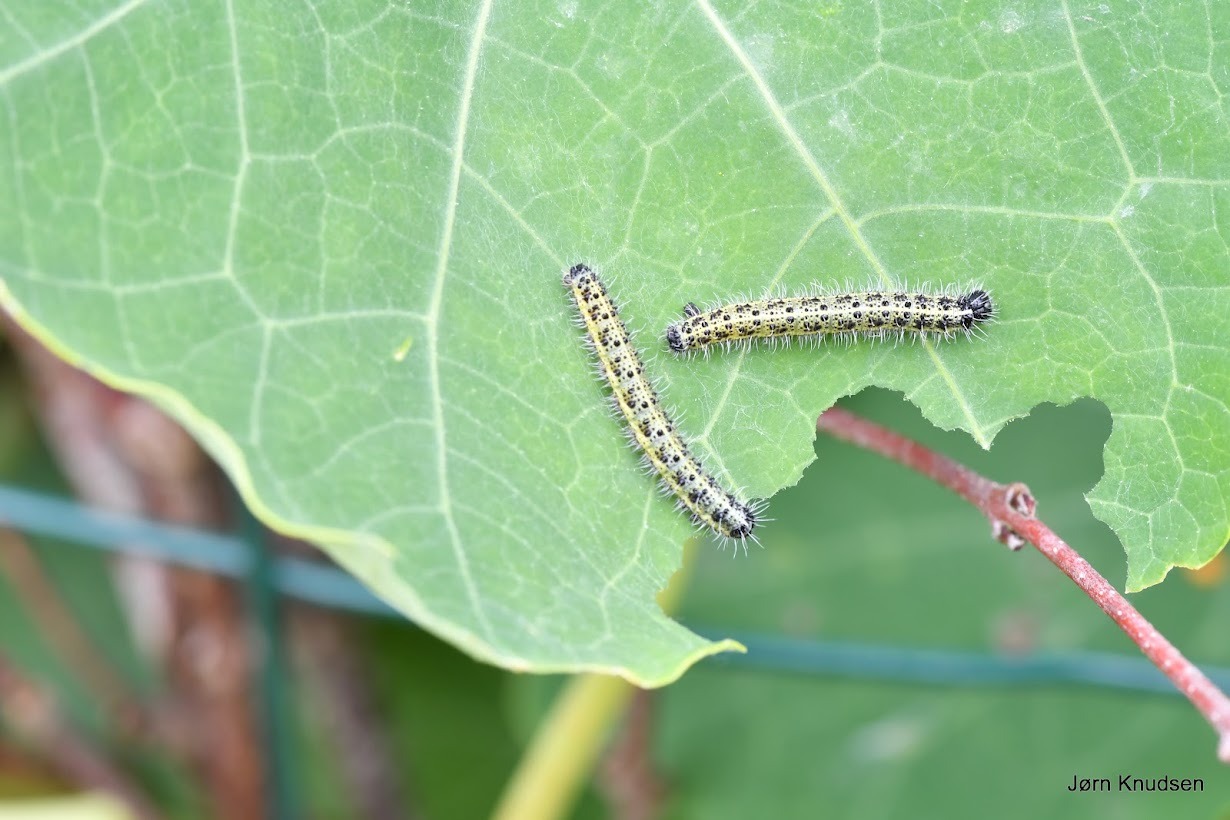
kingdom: Animalia
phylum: Arthropoda
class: Insecta
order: Lepidoptera
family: Pieridae
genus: Pieris
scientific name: Pieris brassicae
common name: Stor kålsommerfugl
